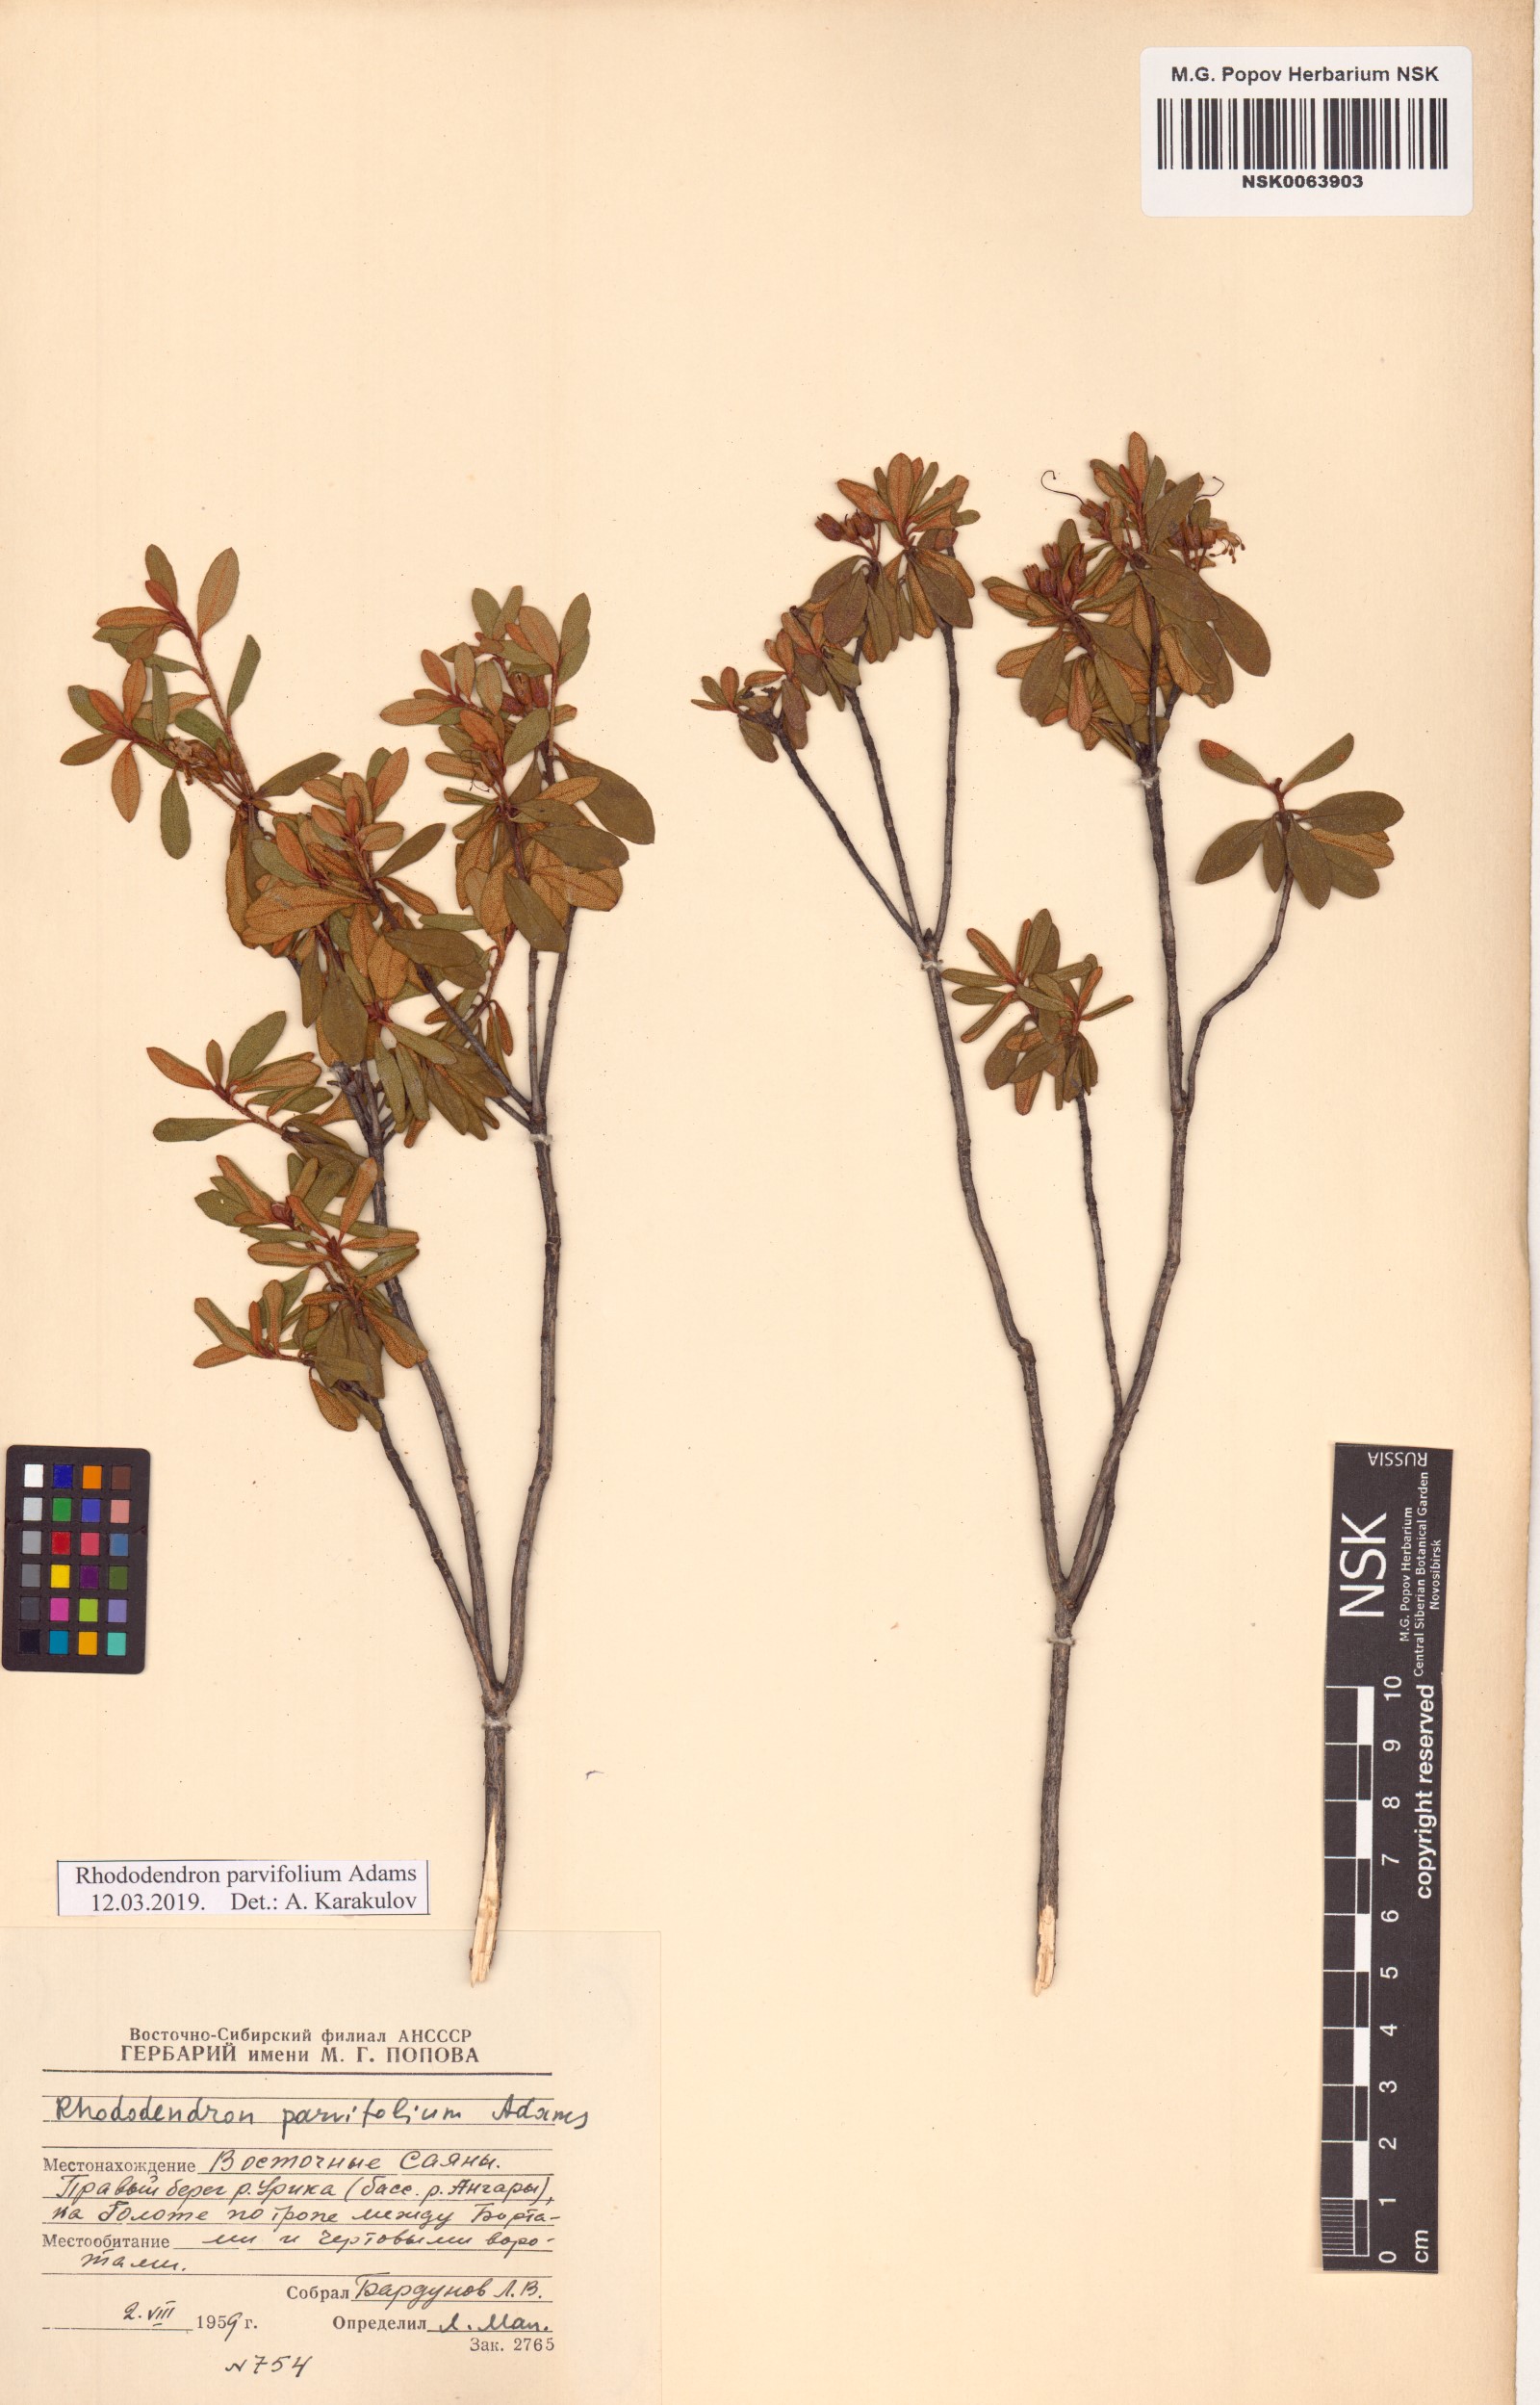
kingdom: Plantae
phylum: Tracheophyta
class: Magnoliopsida
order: Ericales
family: Ericaceae
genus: Rhododendron
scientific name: Rhododendron parvifolium
